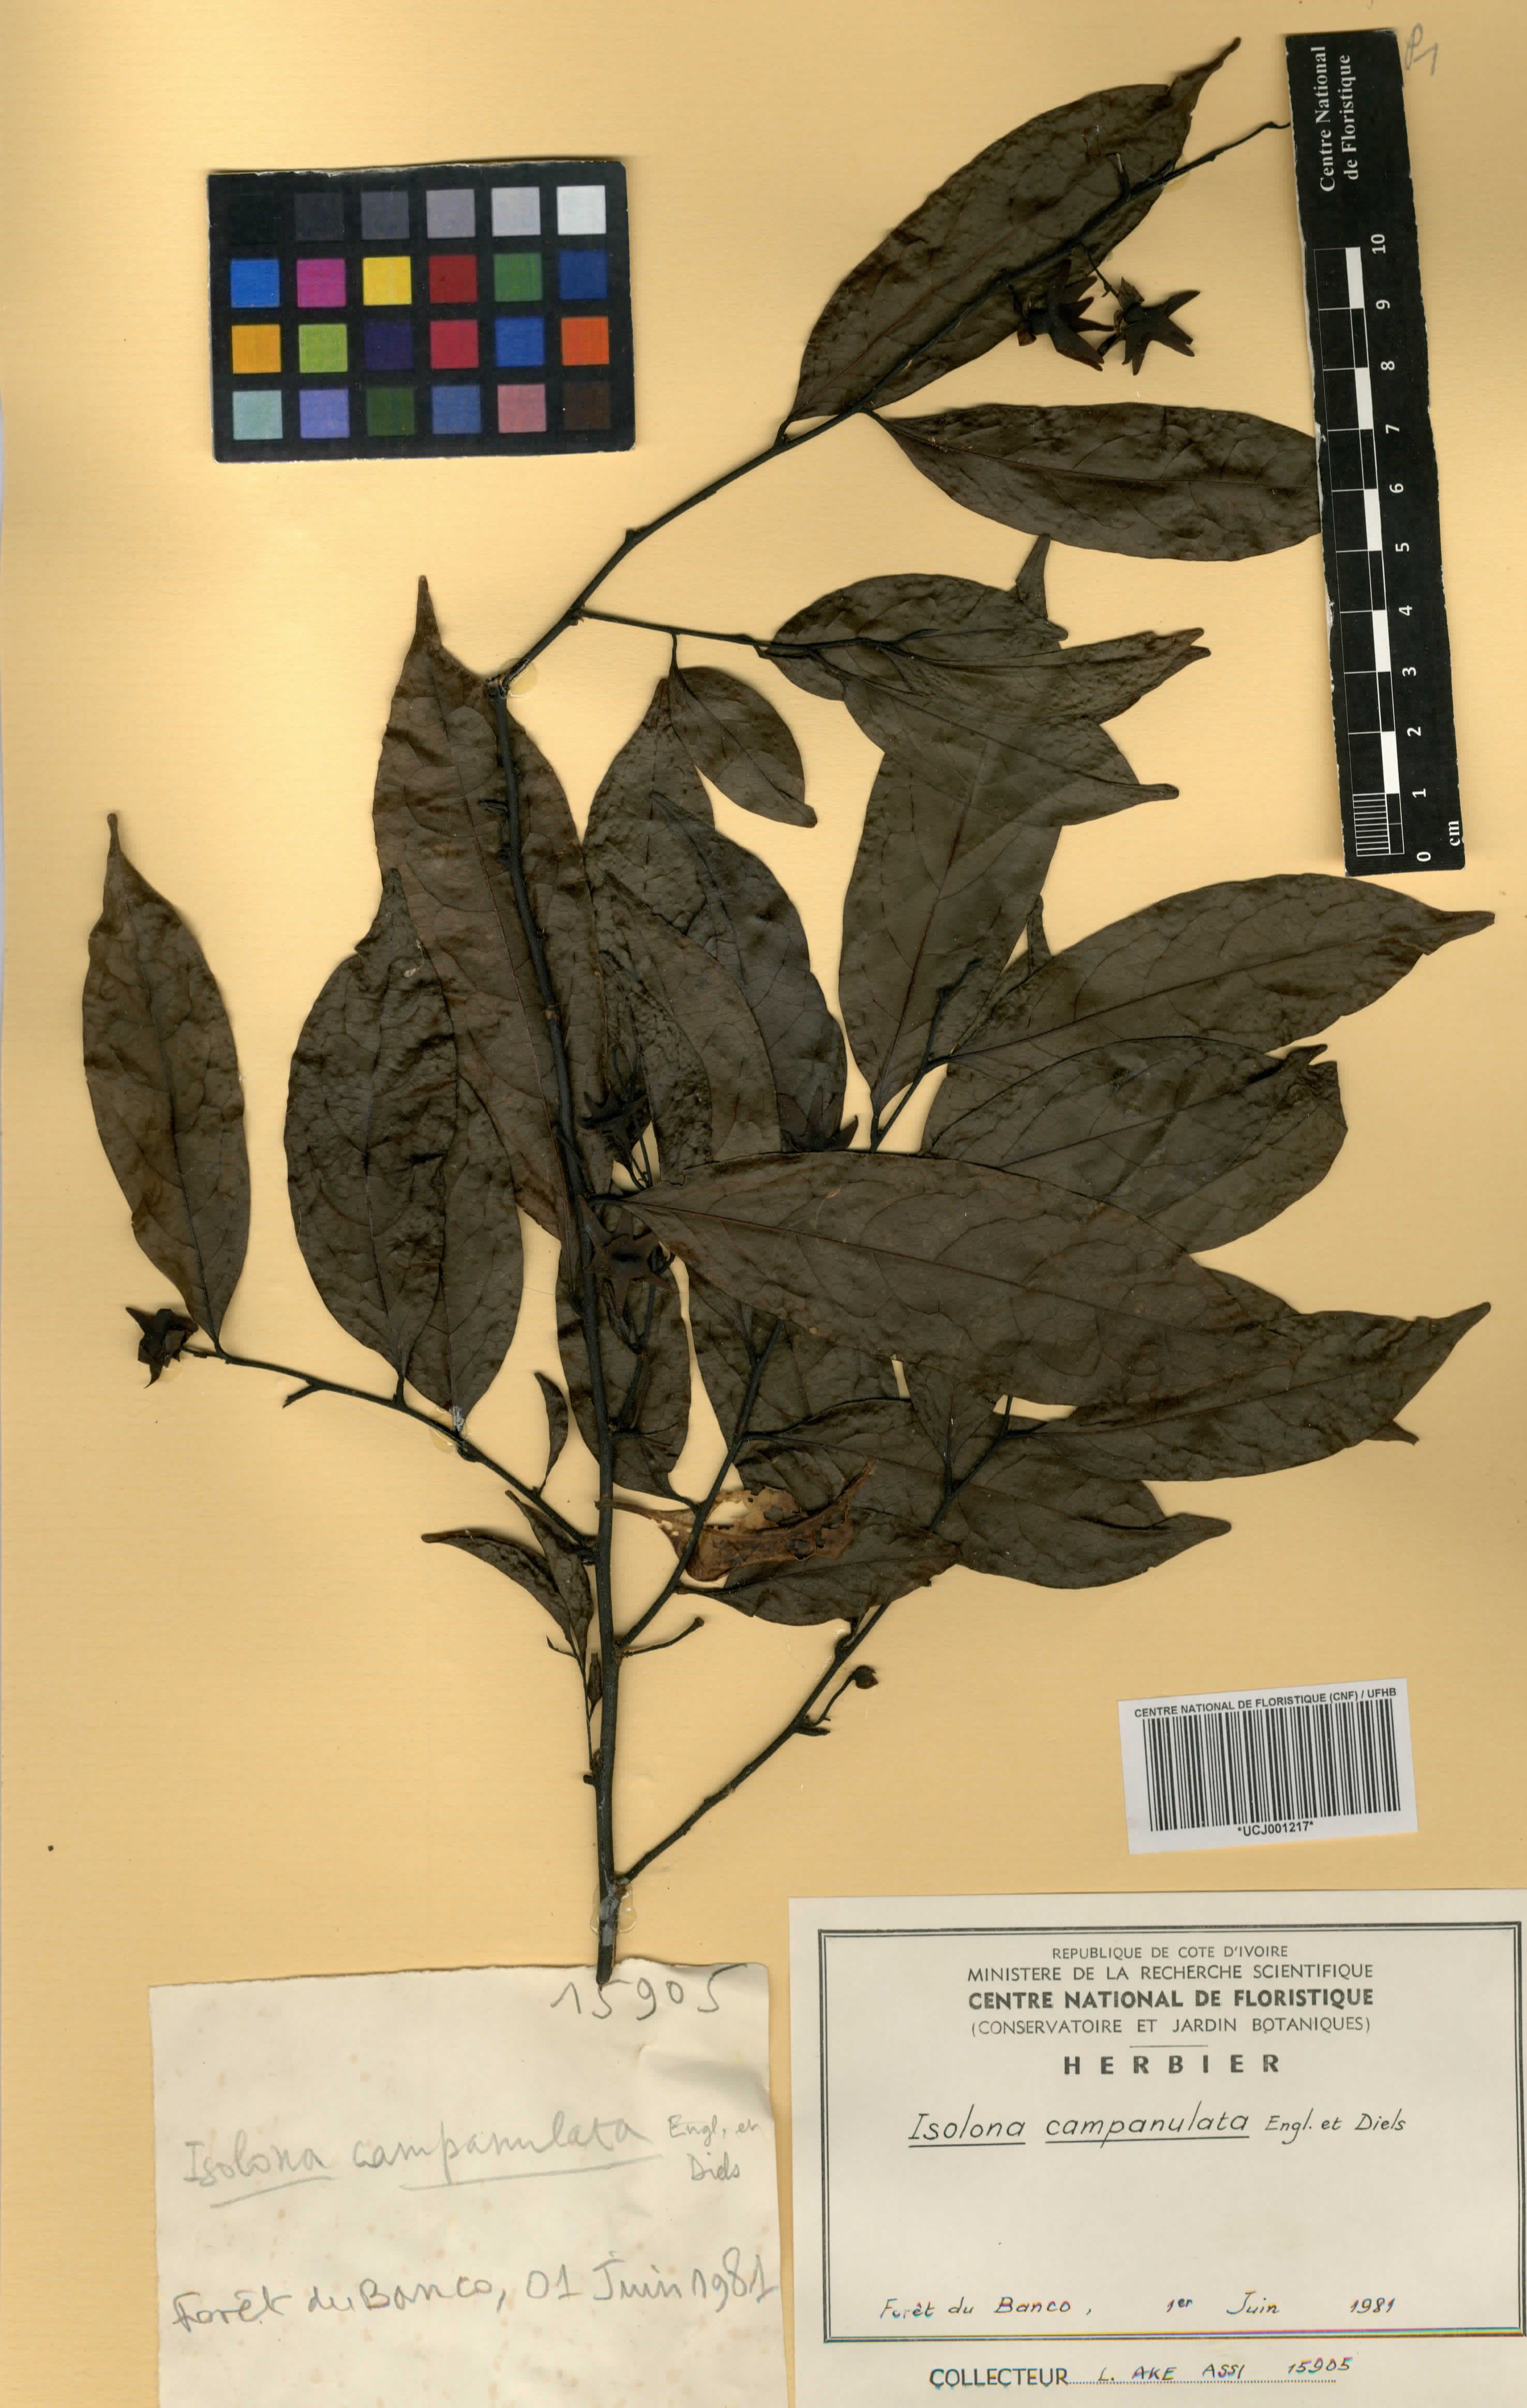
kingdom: Plantae
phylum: Tracheophyta
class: Magnoliopsida
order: Magnoliales
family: Annonaceae
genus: Isolona
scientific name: Isolona campanulata
